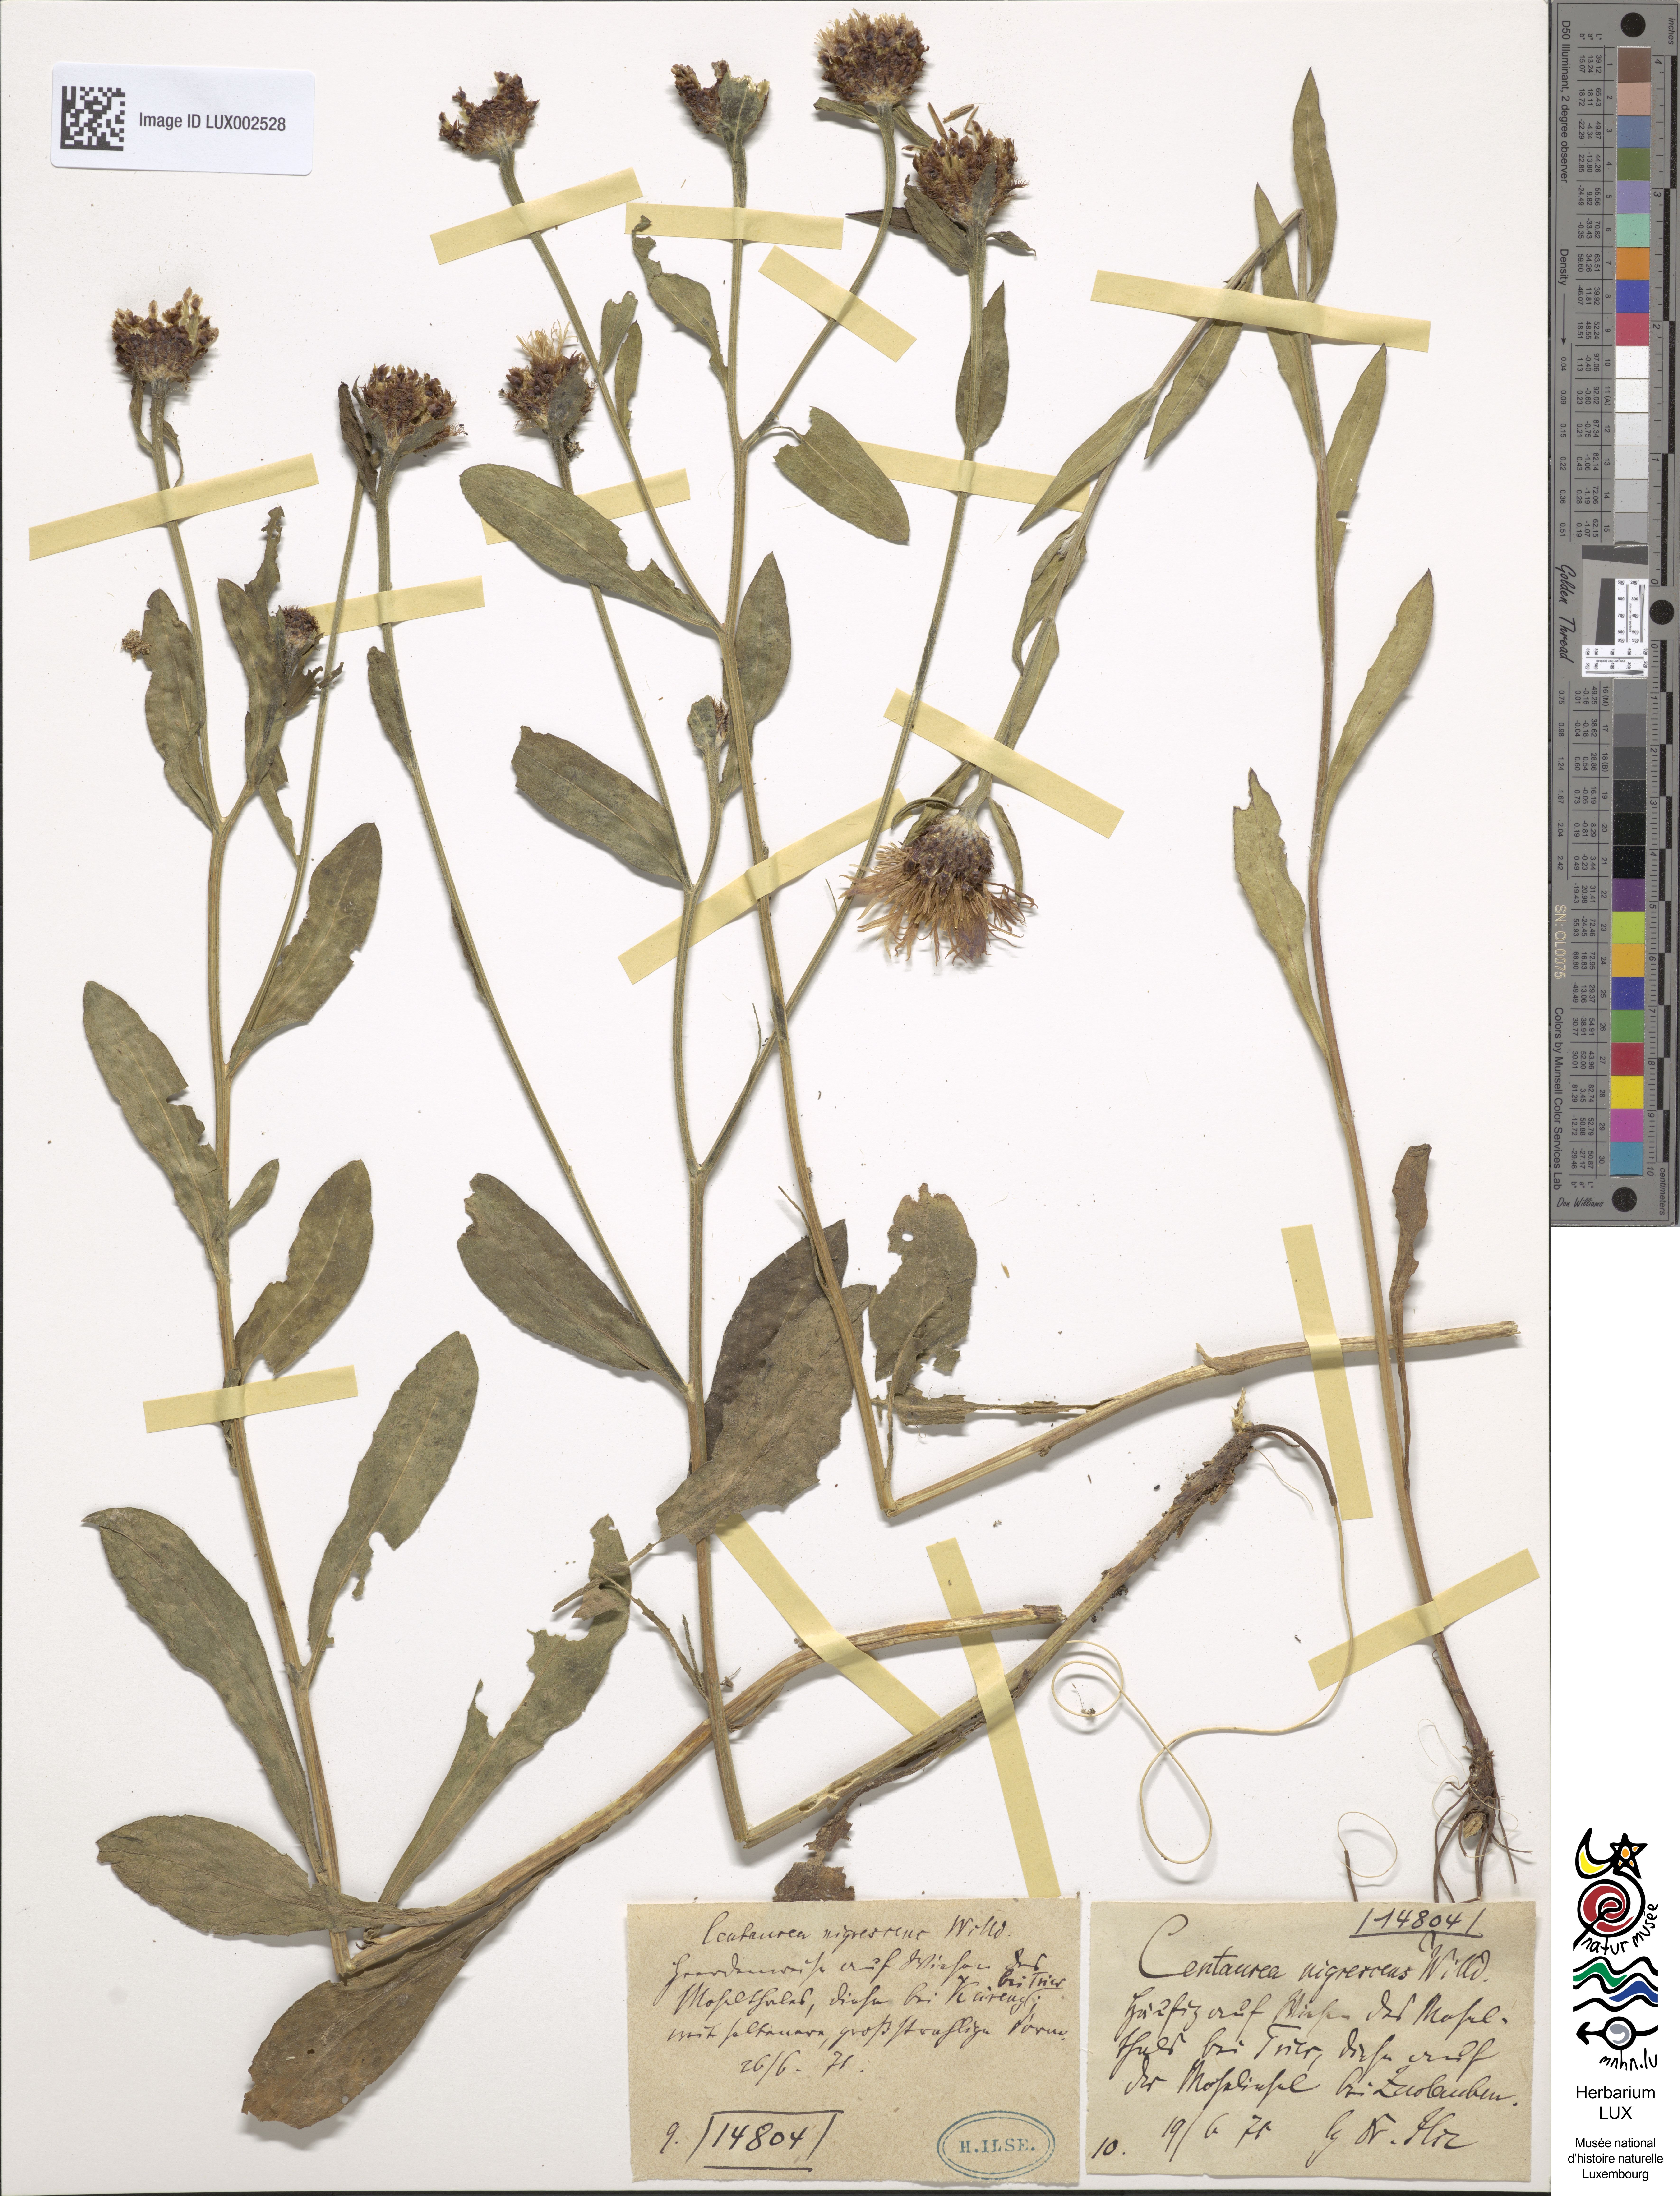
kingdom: Plantae
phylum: Tracheophyta
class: Magnoliopsida
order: Asterales
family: Asteraceae
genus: Centaurea
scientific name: Centaurea nigrescens
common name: Tyrol knapweed
